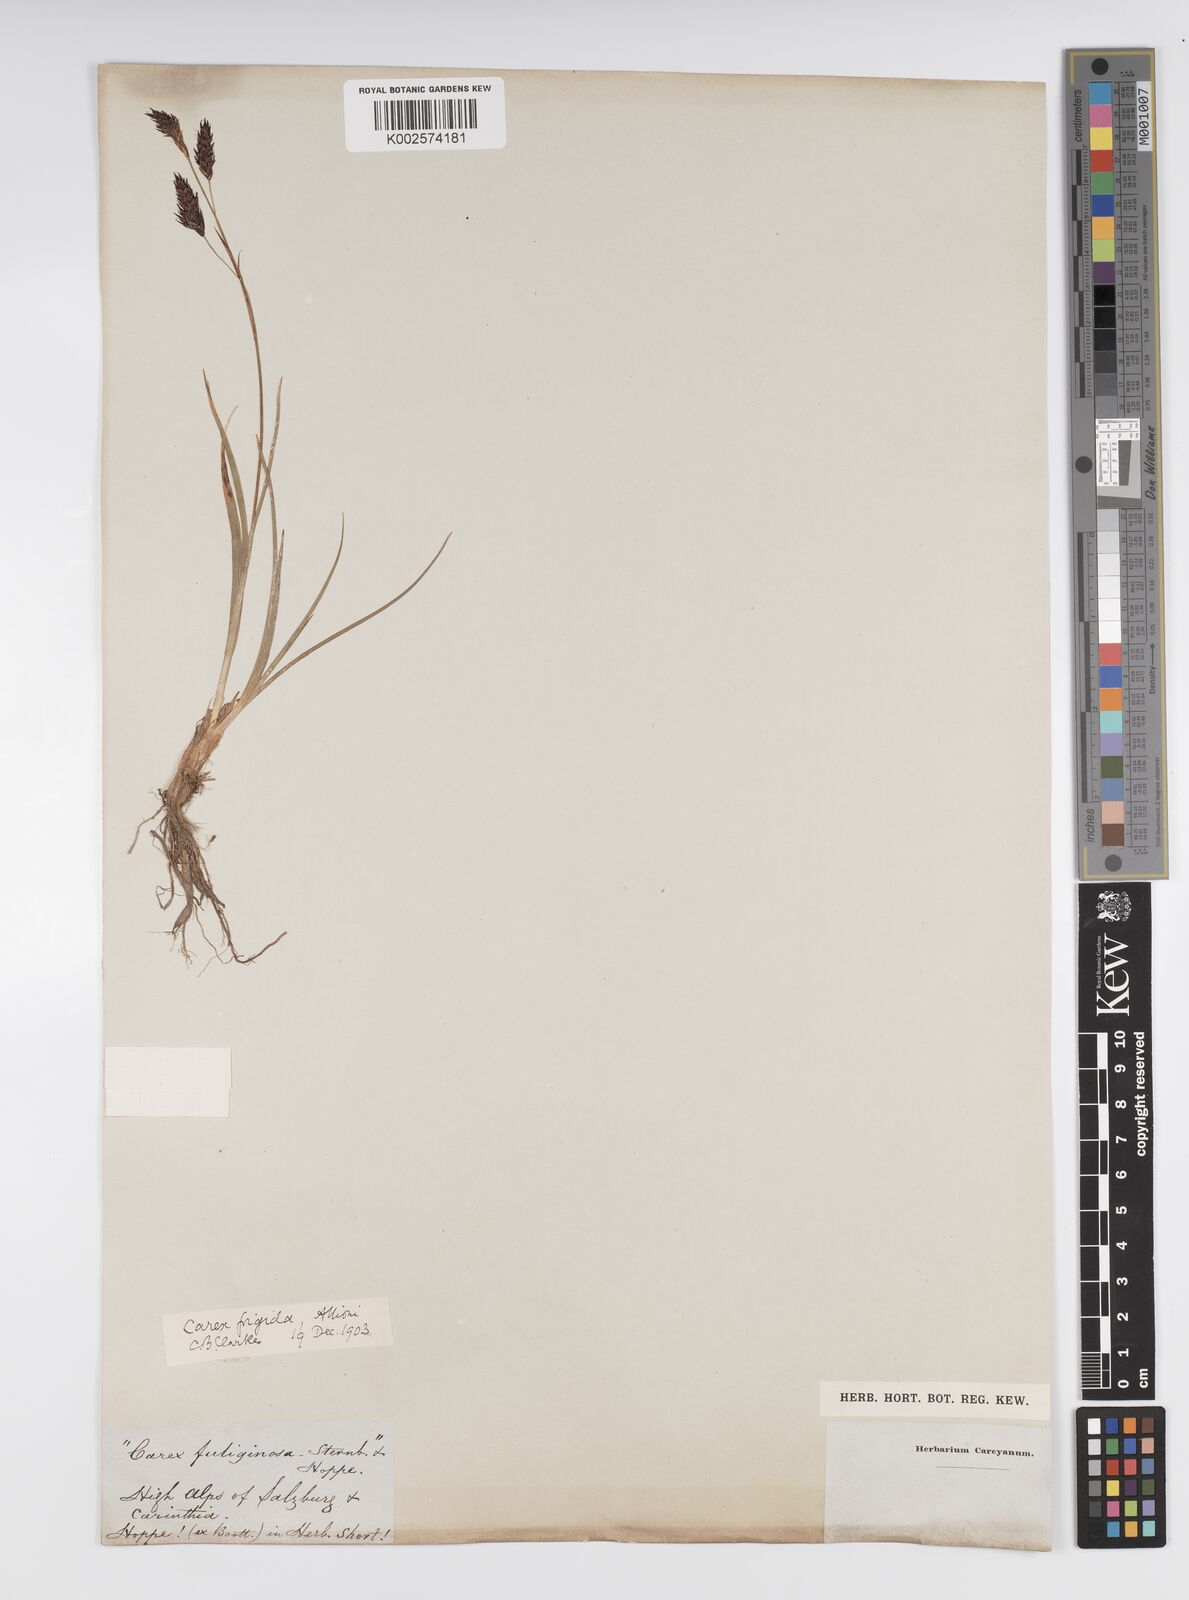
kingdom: Plantae
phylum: Tracheophyta
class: Liliopsida
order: Poales
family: Cyperaceae
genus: Carex
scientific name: Carex frigida
